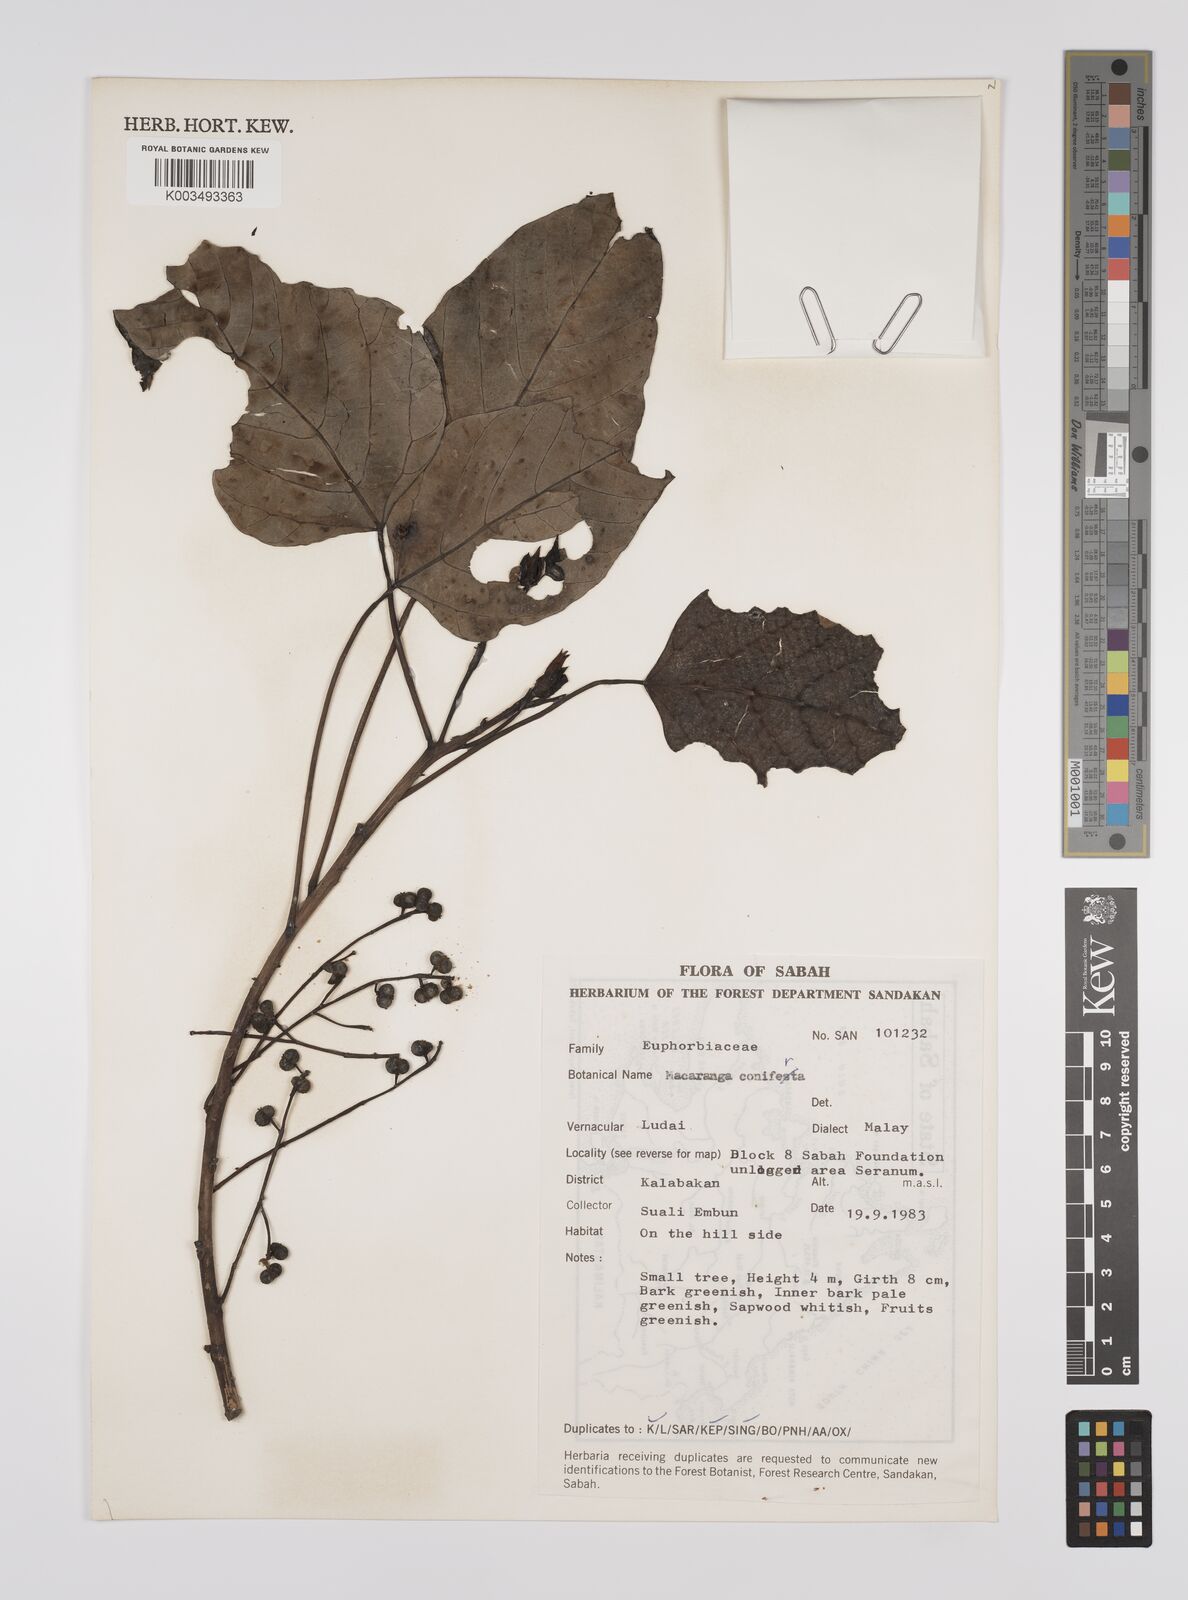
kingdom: Plantae
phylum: Tracheophyta
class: Magnoliopsida
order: Malpighiales
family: Euphorbiaceae
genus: Macaranga
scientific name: Macaranga conifera
